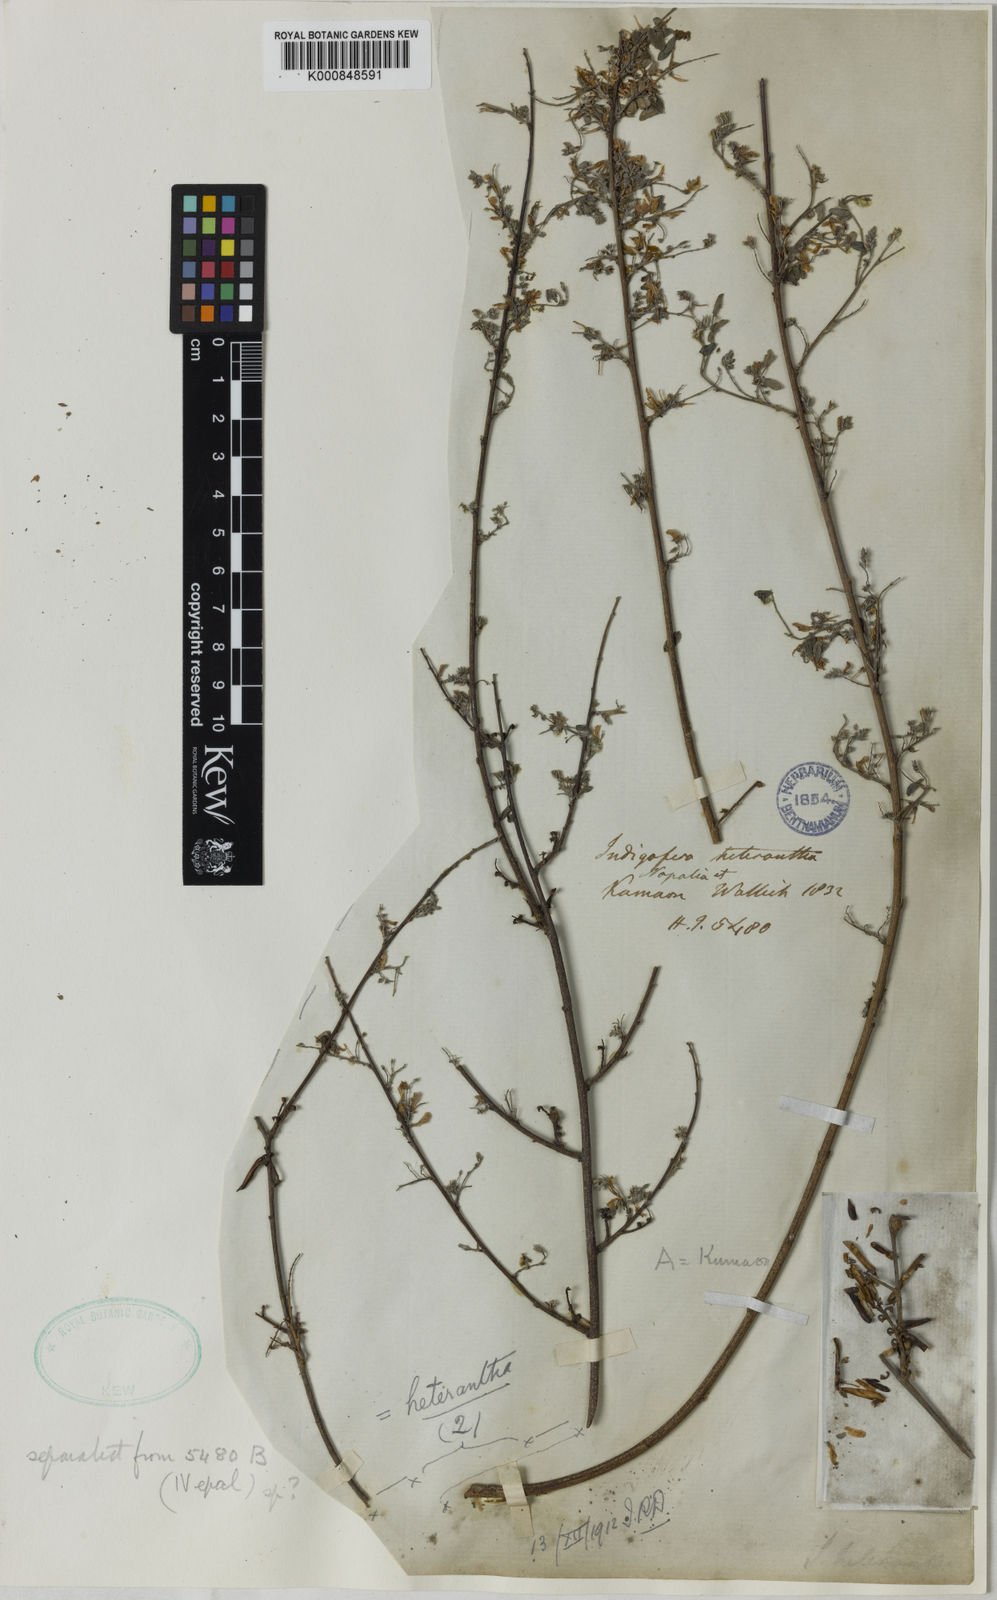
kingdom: Plantae
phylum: Tracheophyta
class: Magnoliopsida
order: Fabales
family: Fabaceae
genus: Indigofera
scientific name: Indigofera heterantha
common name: Himalayan indigo
